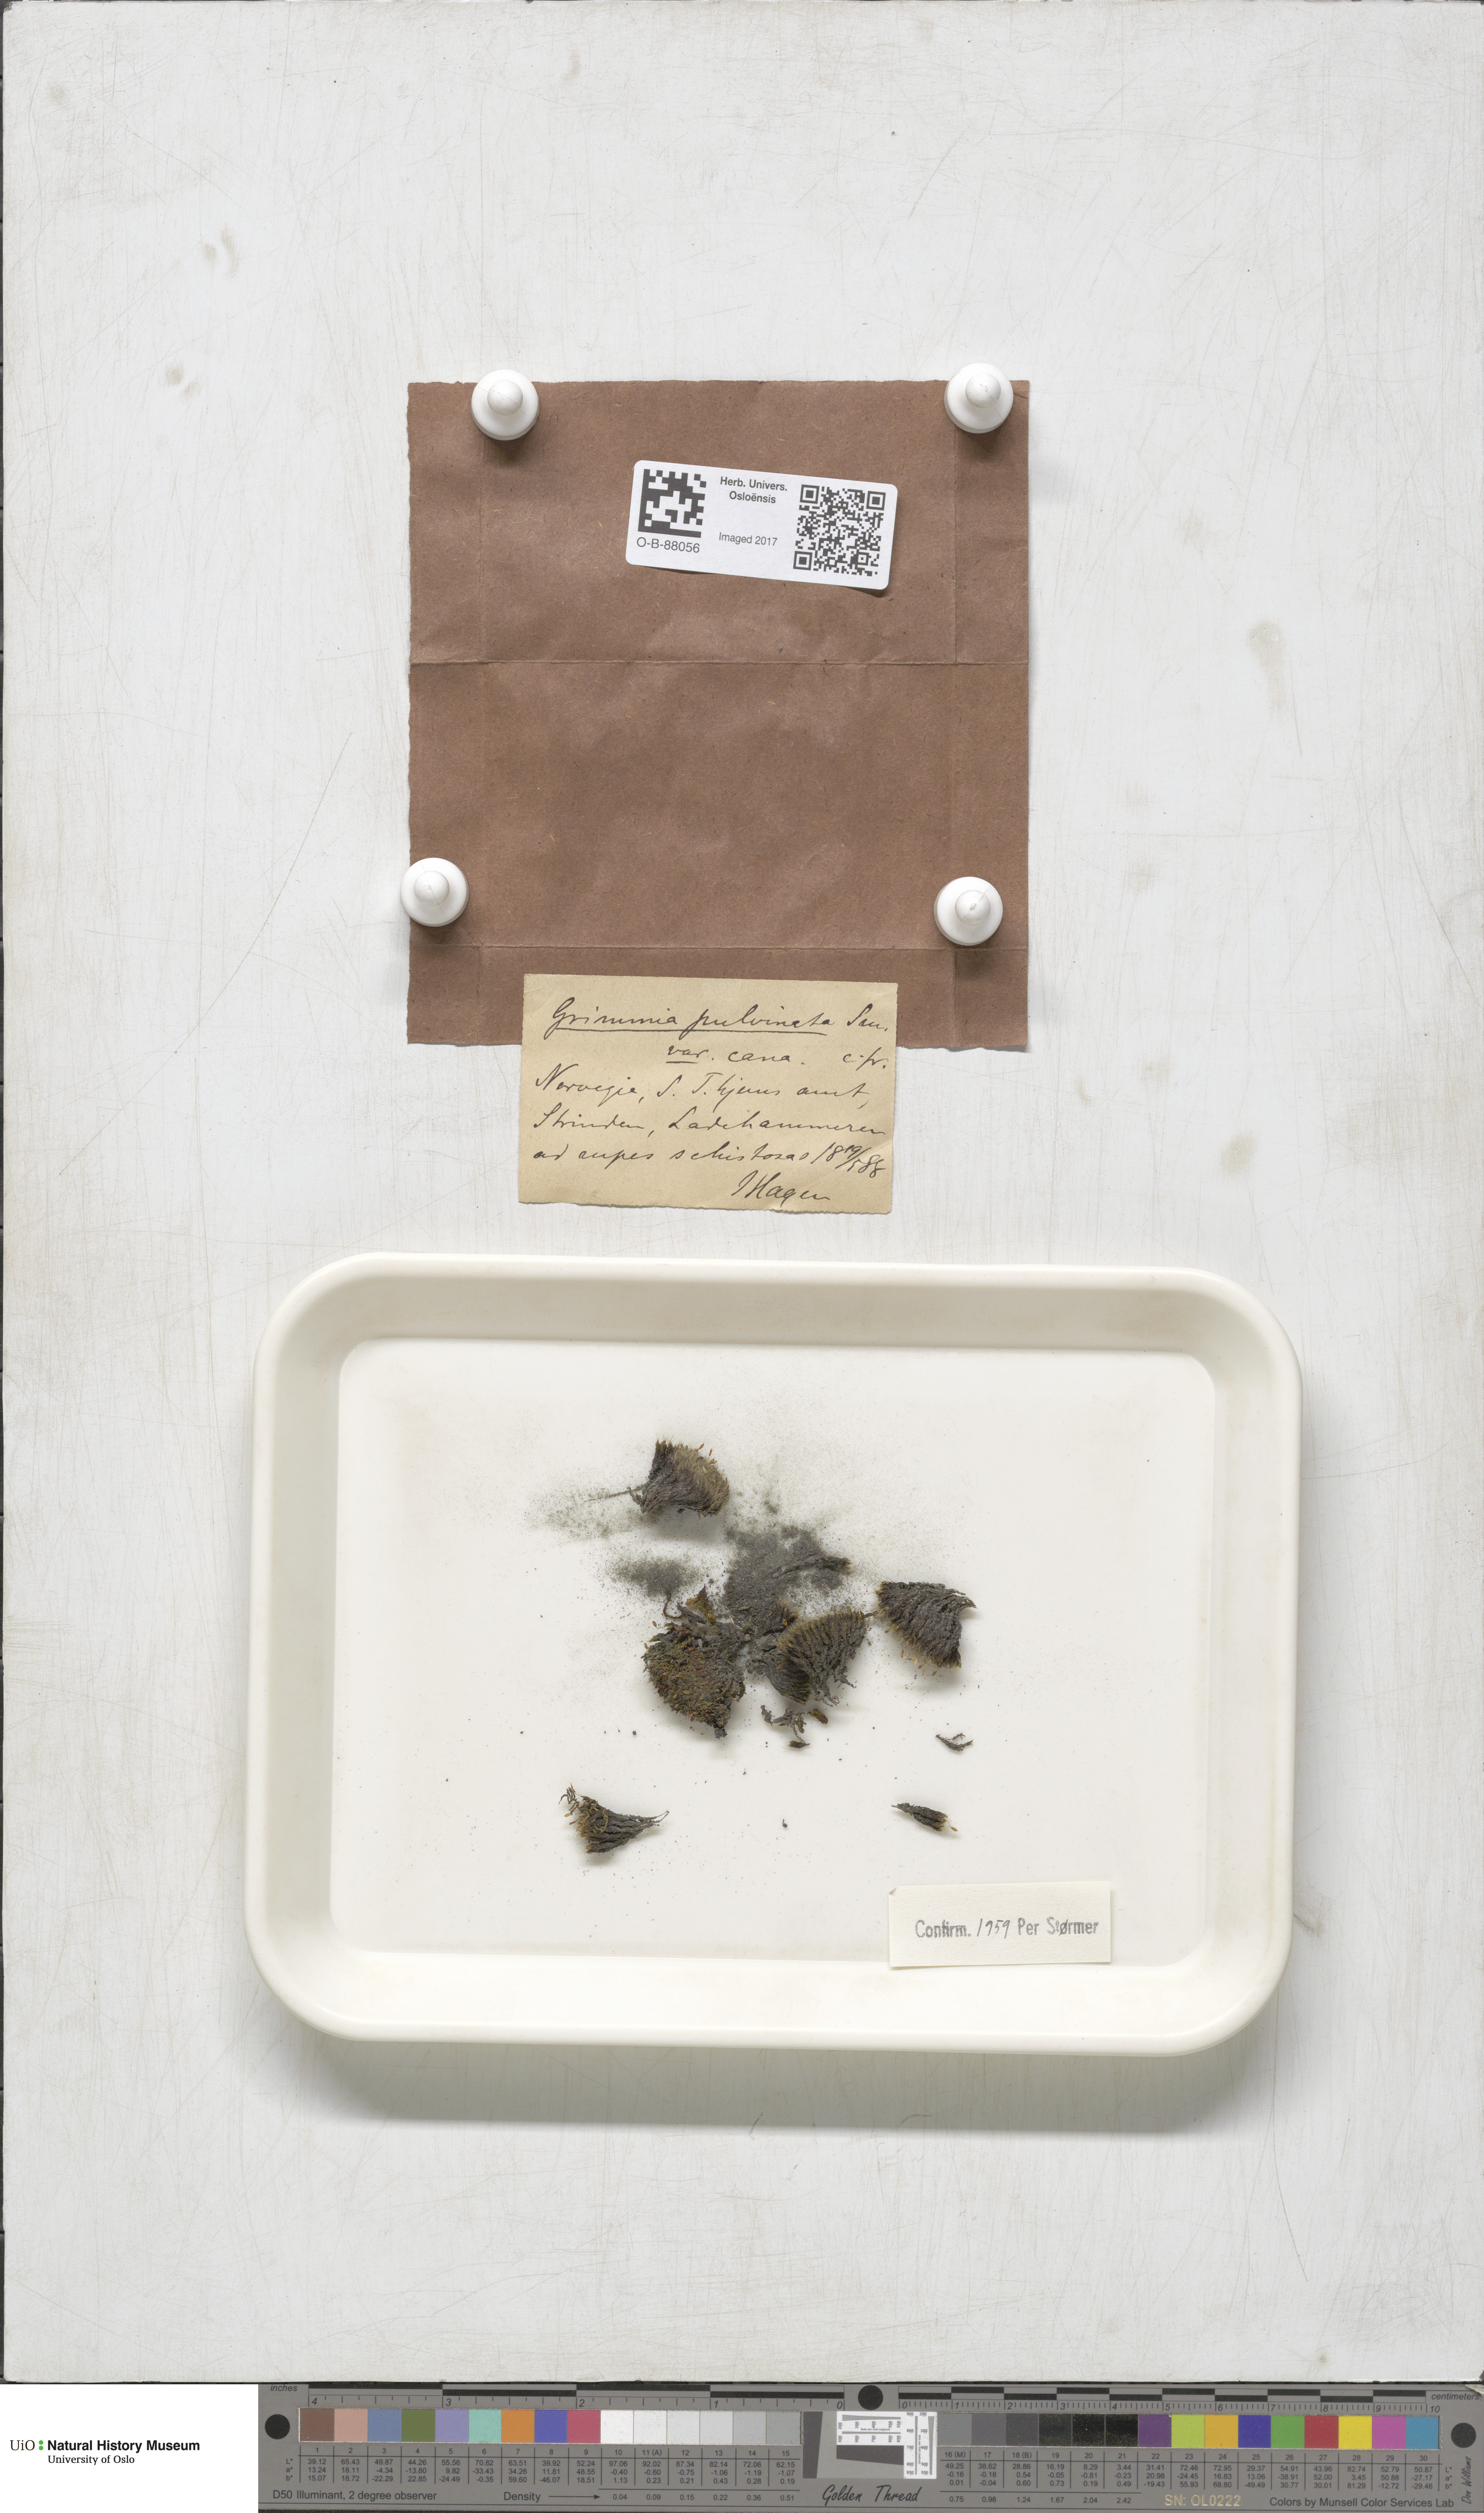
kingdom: Plantae
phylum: Bryophyta
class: Bryopsida
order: Grimmiales
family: Grimmiaceae
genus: Grimmia
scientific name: Grimmia pulvinata
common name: Grey-cushioned grimmia
